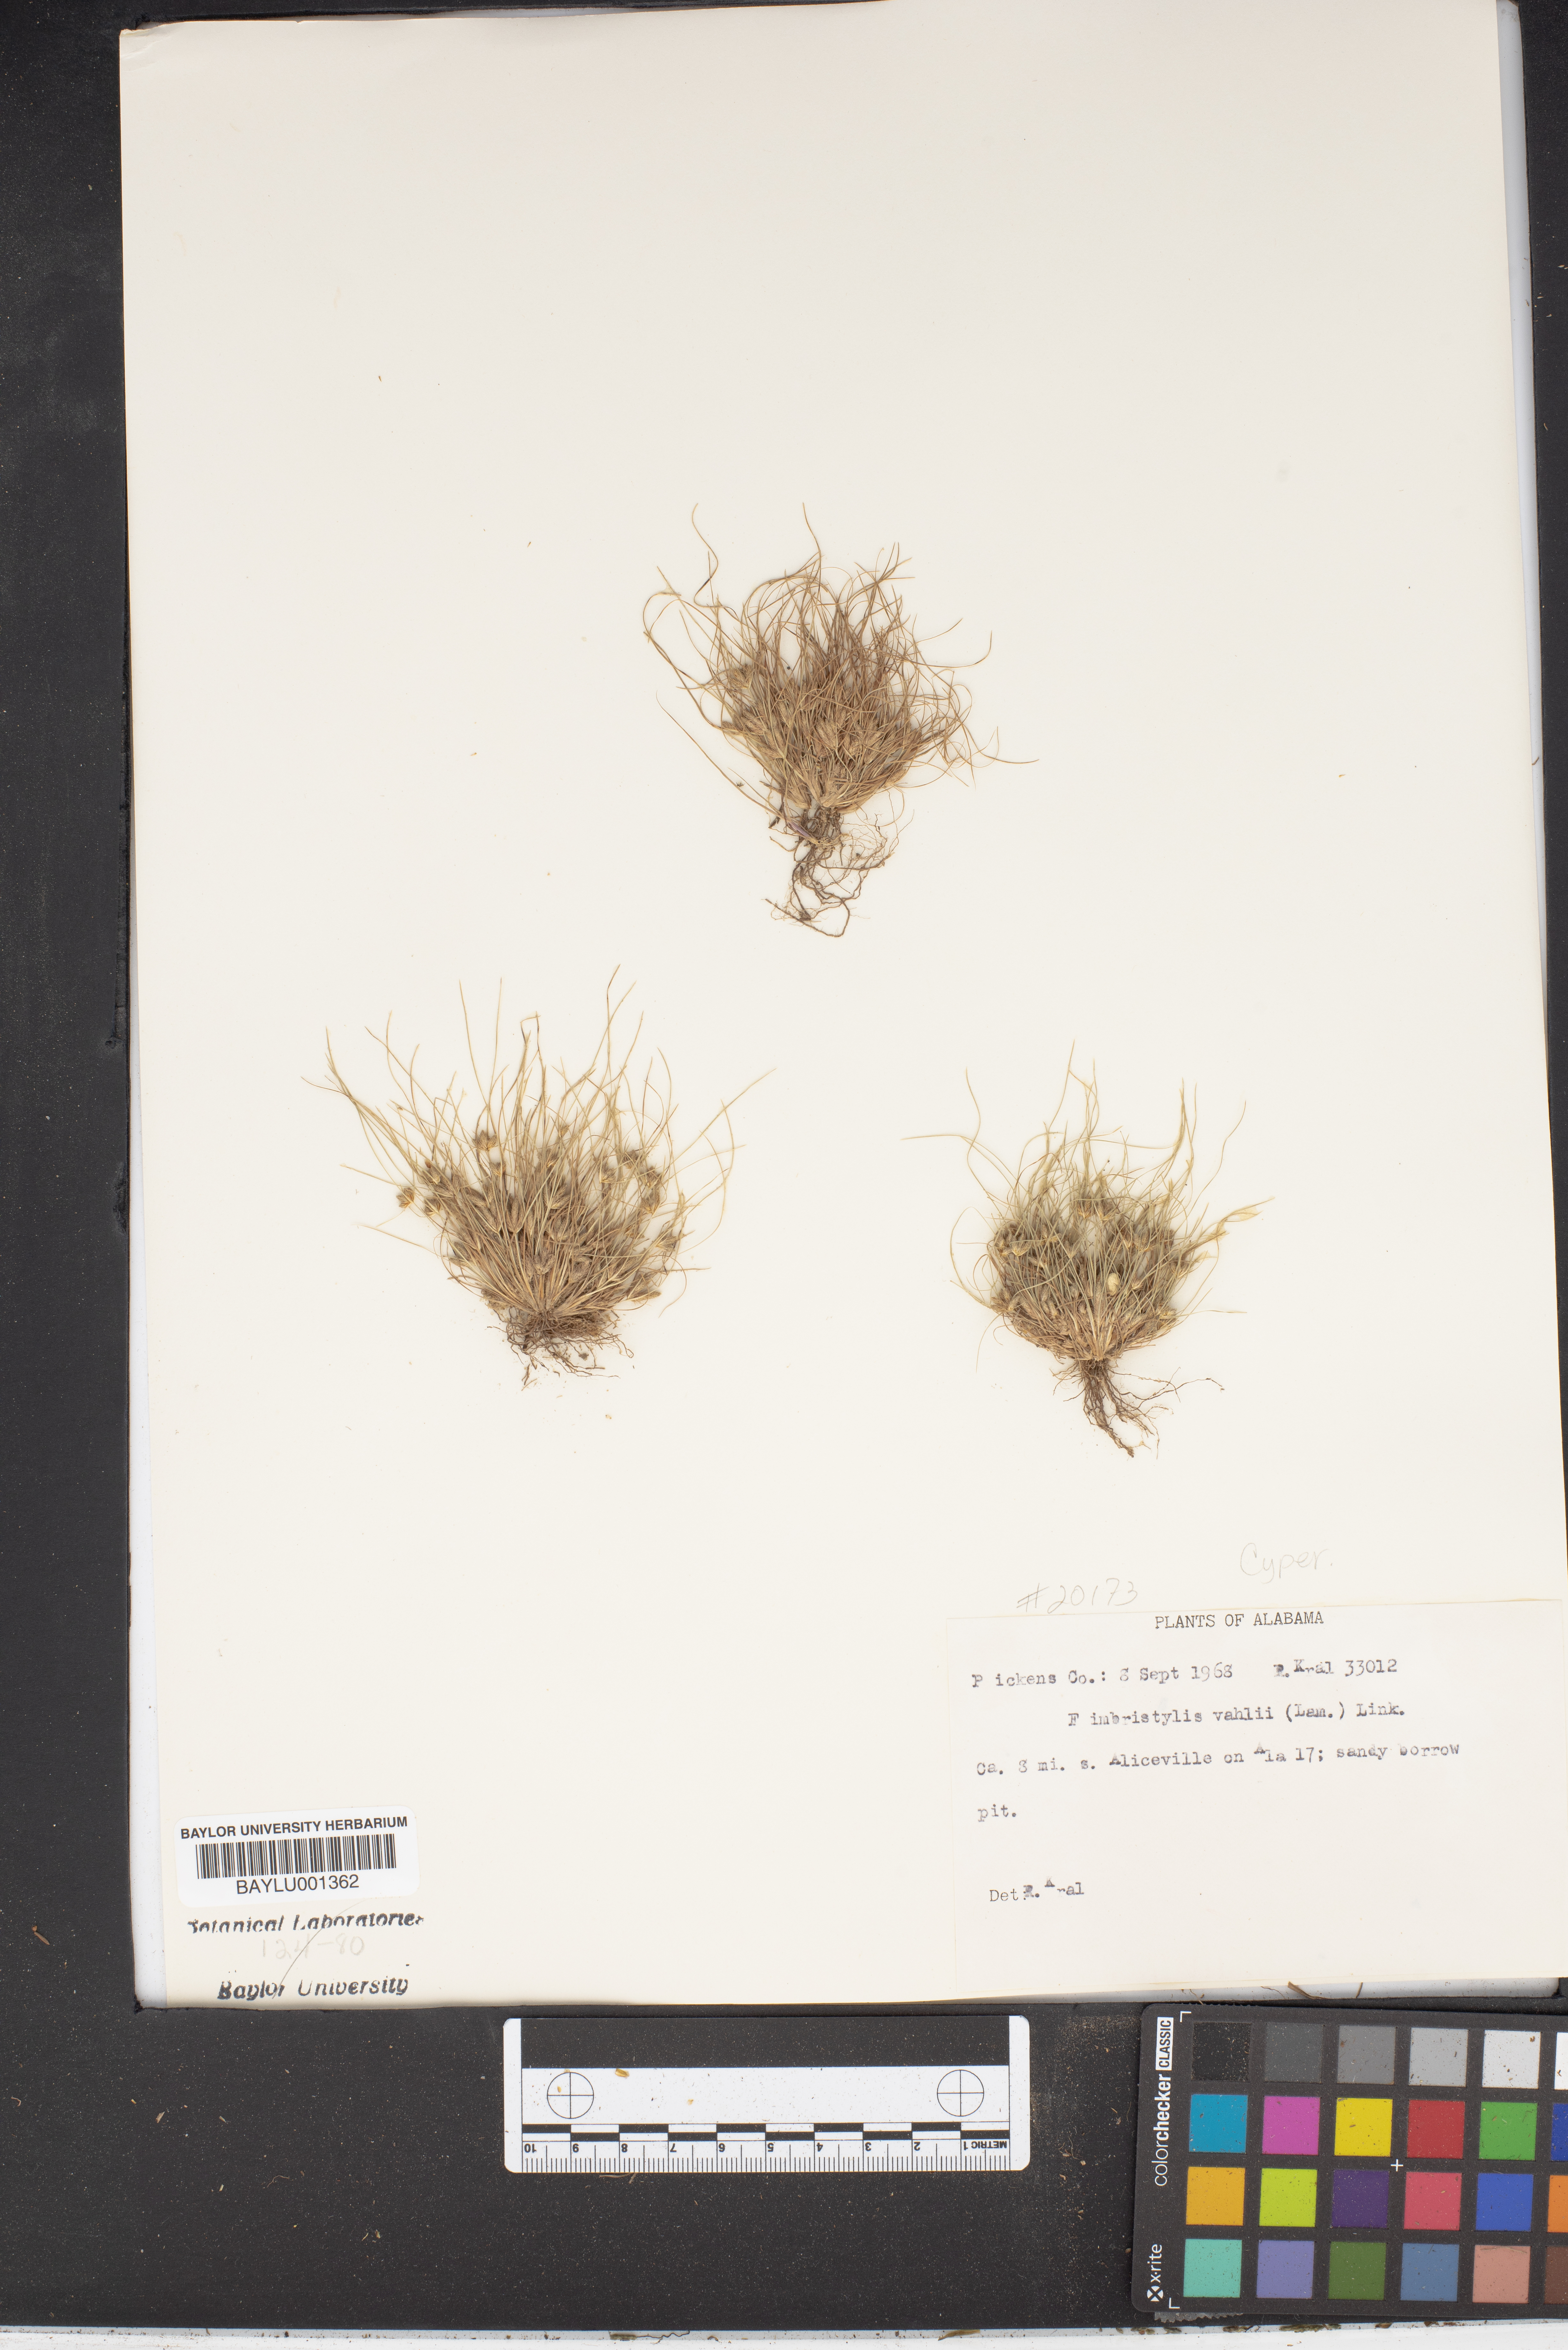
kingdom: Plantae
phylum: Tracheophyta
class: Liliopsida
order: Poales
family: Cyperaceae
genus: Fimbristylis
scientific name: Fimbristylis vahlii
